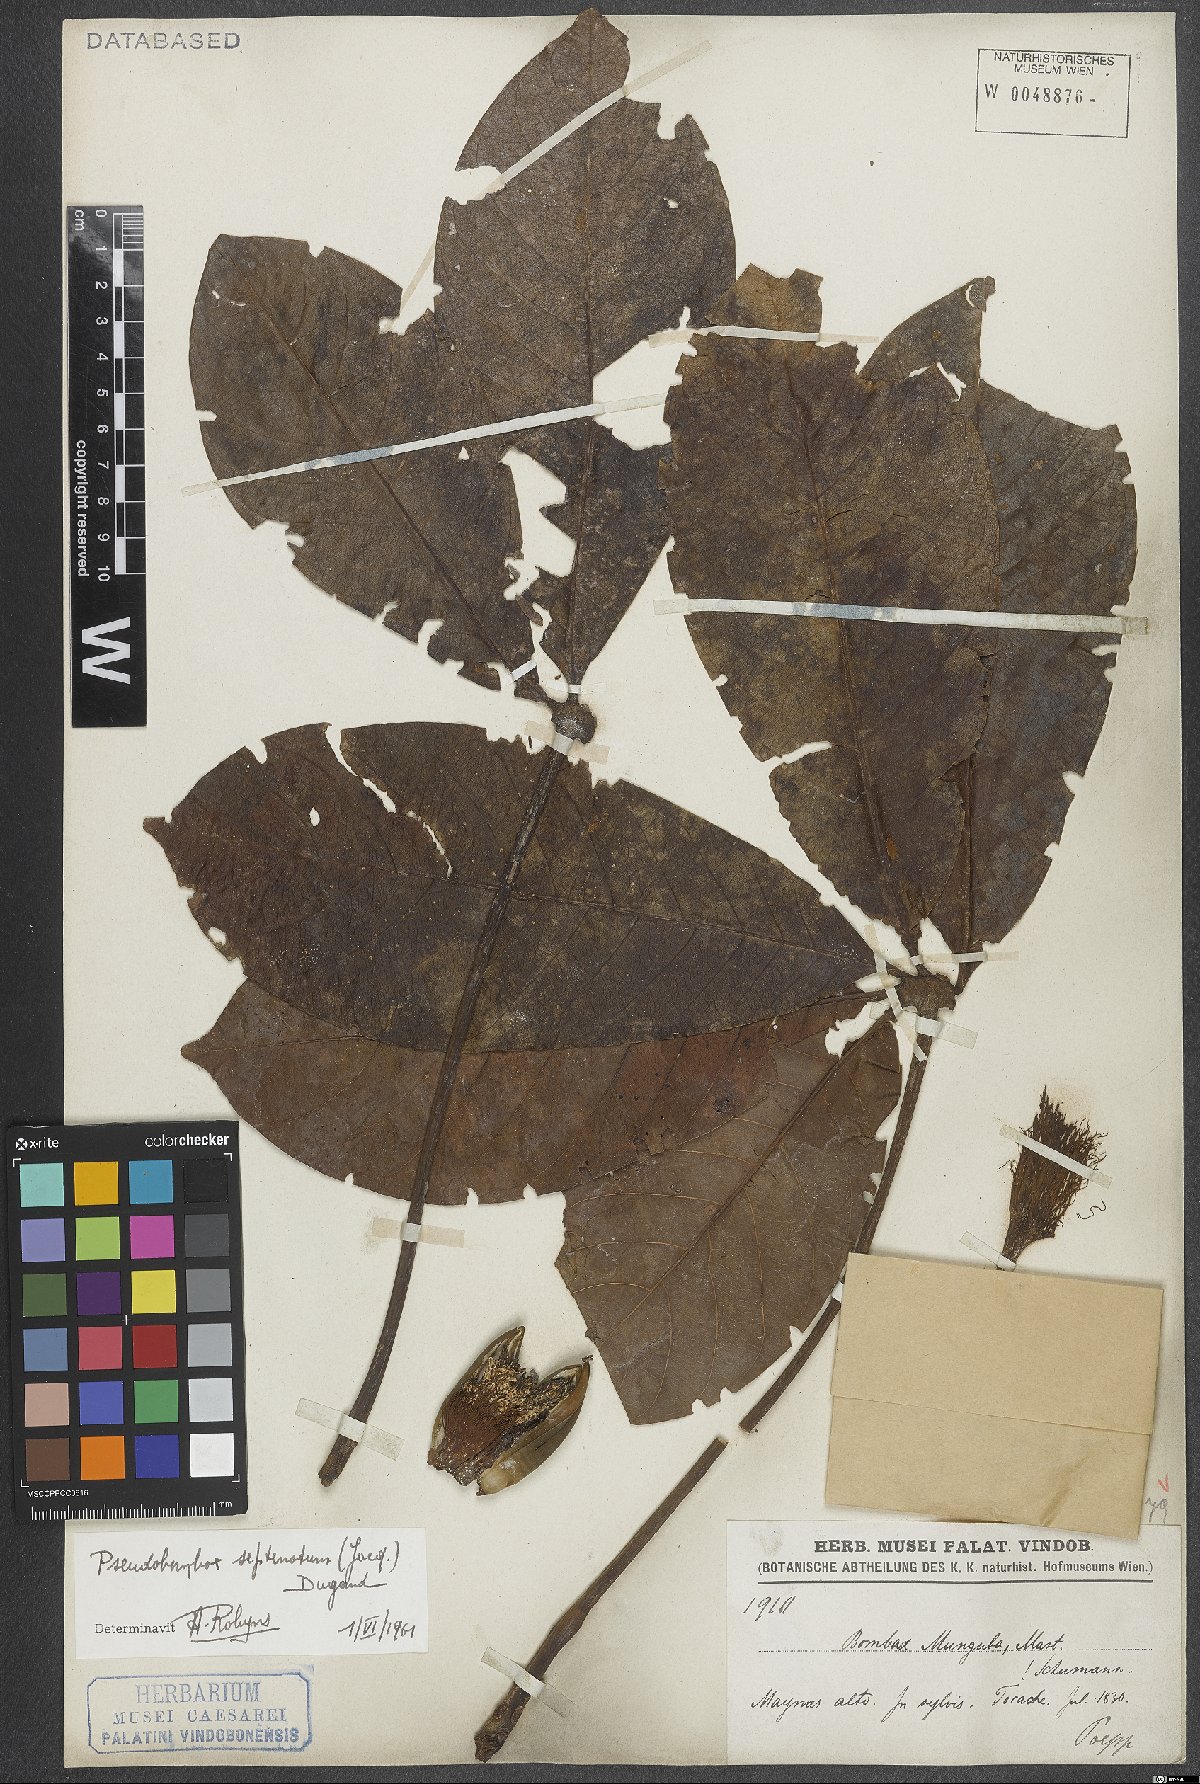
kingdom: Plantae
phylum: Tracheophyta
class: Magnoliopsida
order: Malvales
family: Malvaceae
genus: Pseudobombax
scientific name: Pseudobombax septenatum
